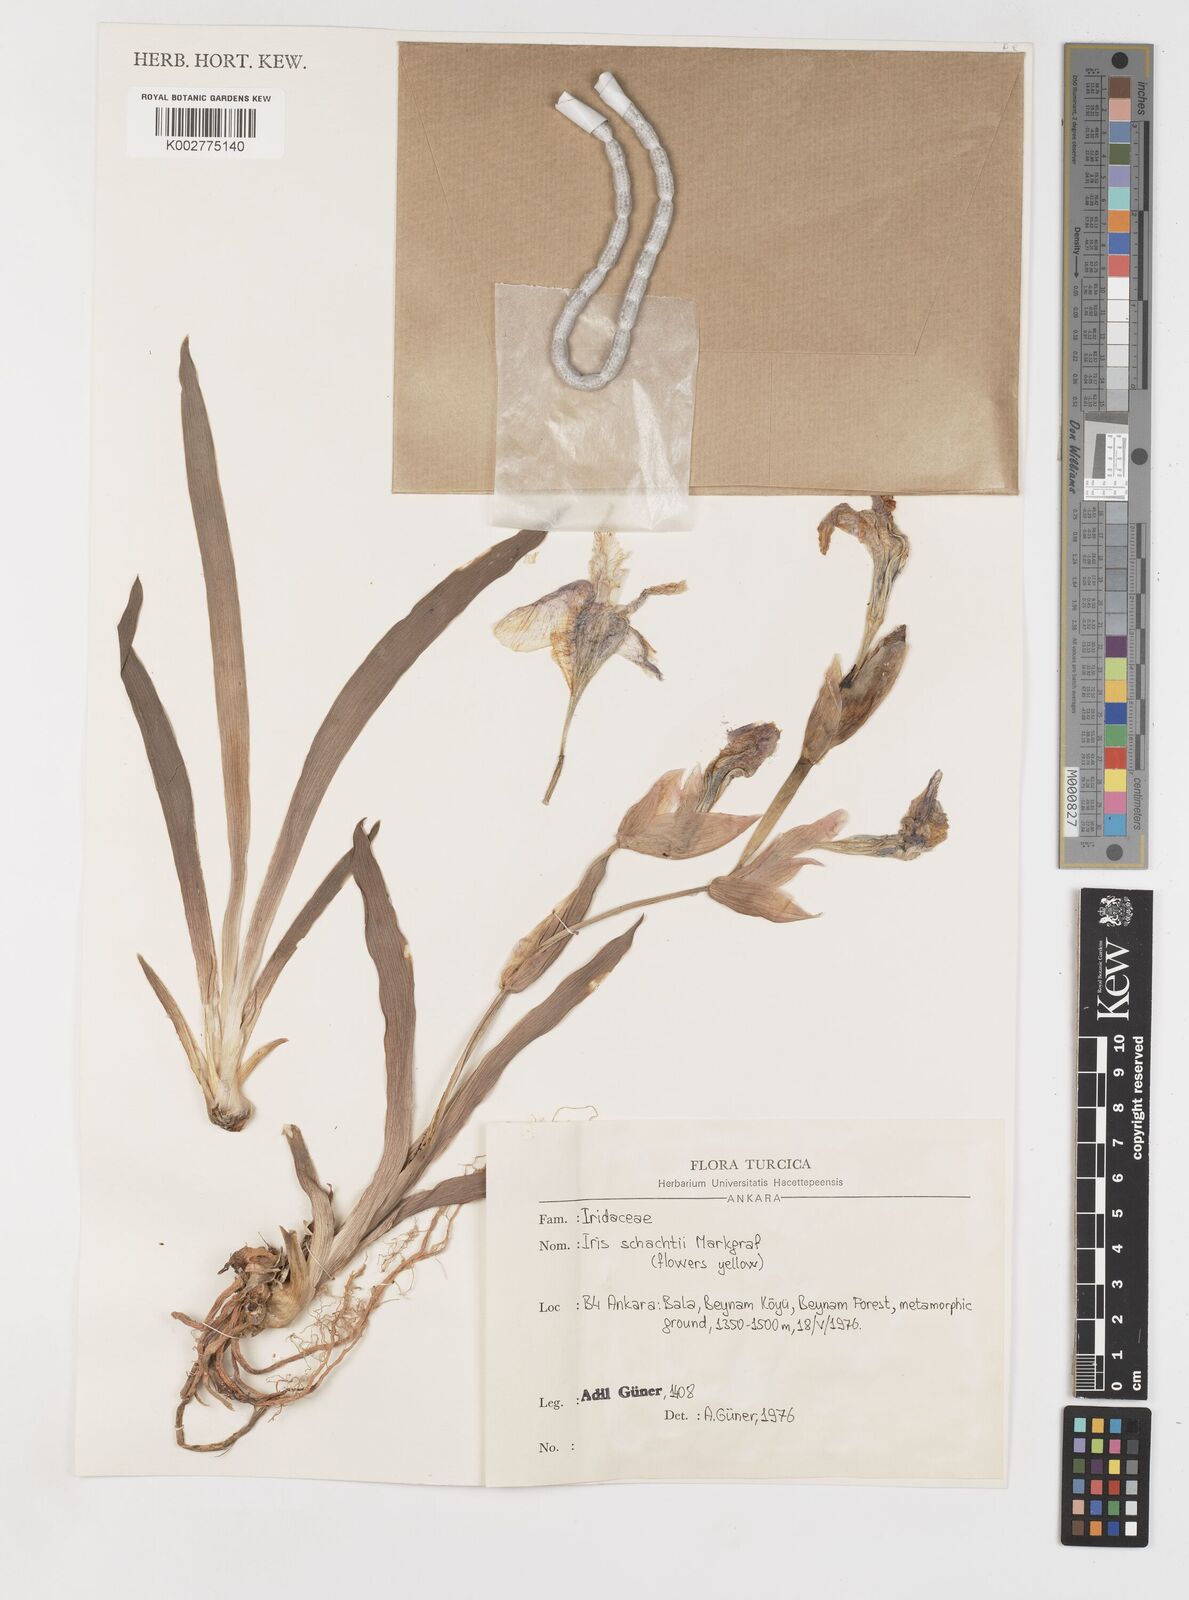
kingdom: Plantae
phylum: Tracheophyta
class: Liliopsida
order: Asparagales
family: Iridaceae
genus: Iris
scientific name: Iris schachtii
